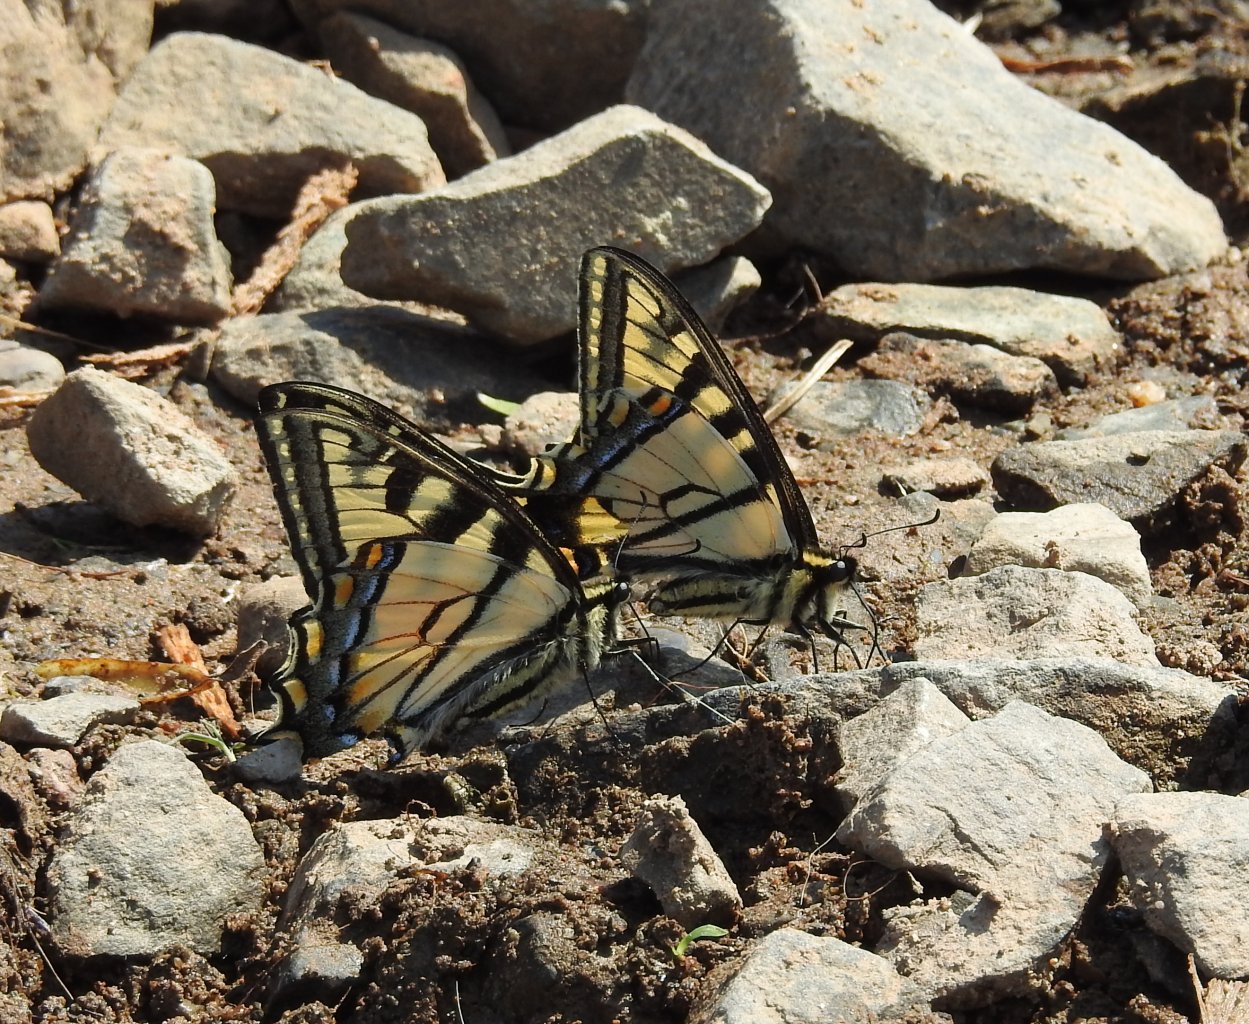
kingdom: Animalia
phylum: Arthropoda
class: Insecta
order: Lepidoptera
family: Papilionidae
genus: Pterourus
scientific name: Pterourus canadensis
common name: Canadian Tiger Swallowtail
